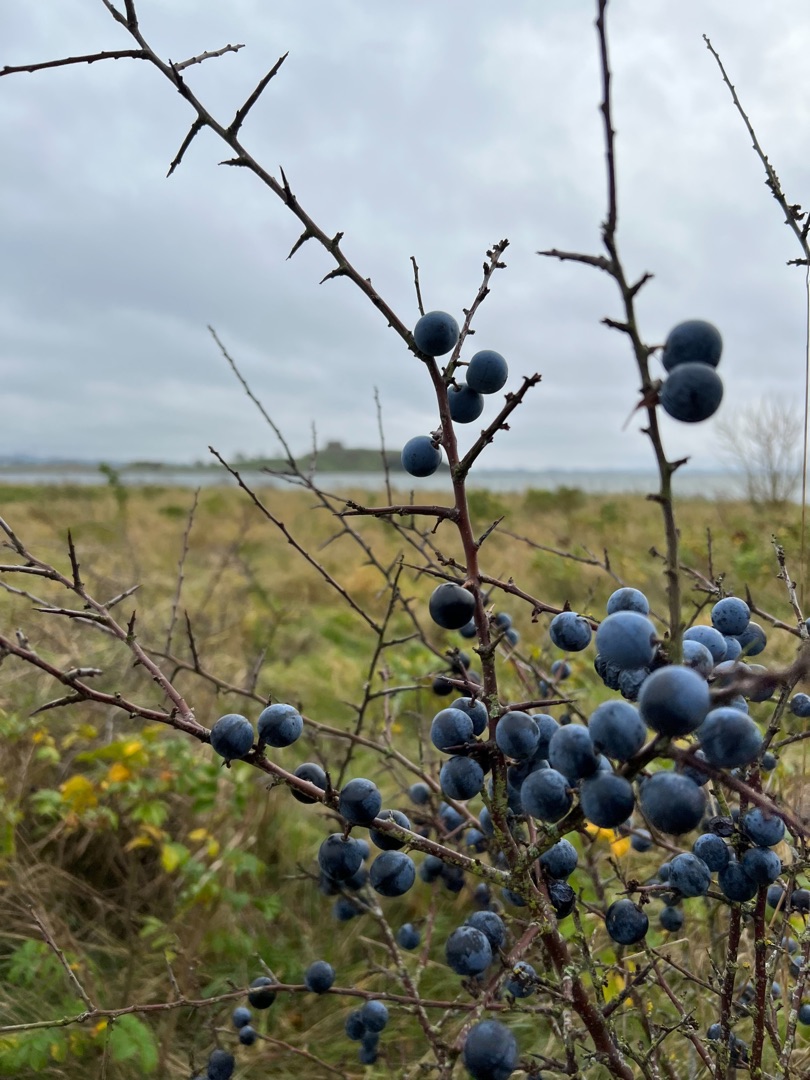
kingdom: Plantae
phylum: Tracheophyta
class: Magnoliopsida
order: Rosales
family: Rosaceae
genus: Prunus
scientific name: Prunus spinosa
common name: Slåen
